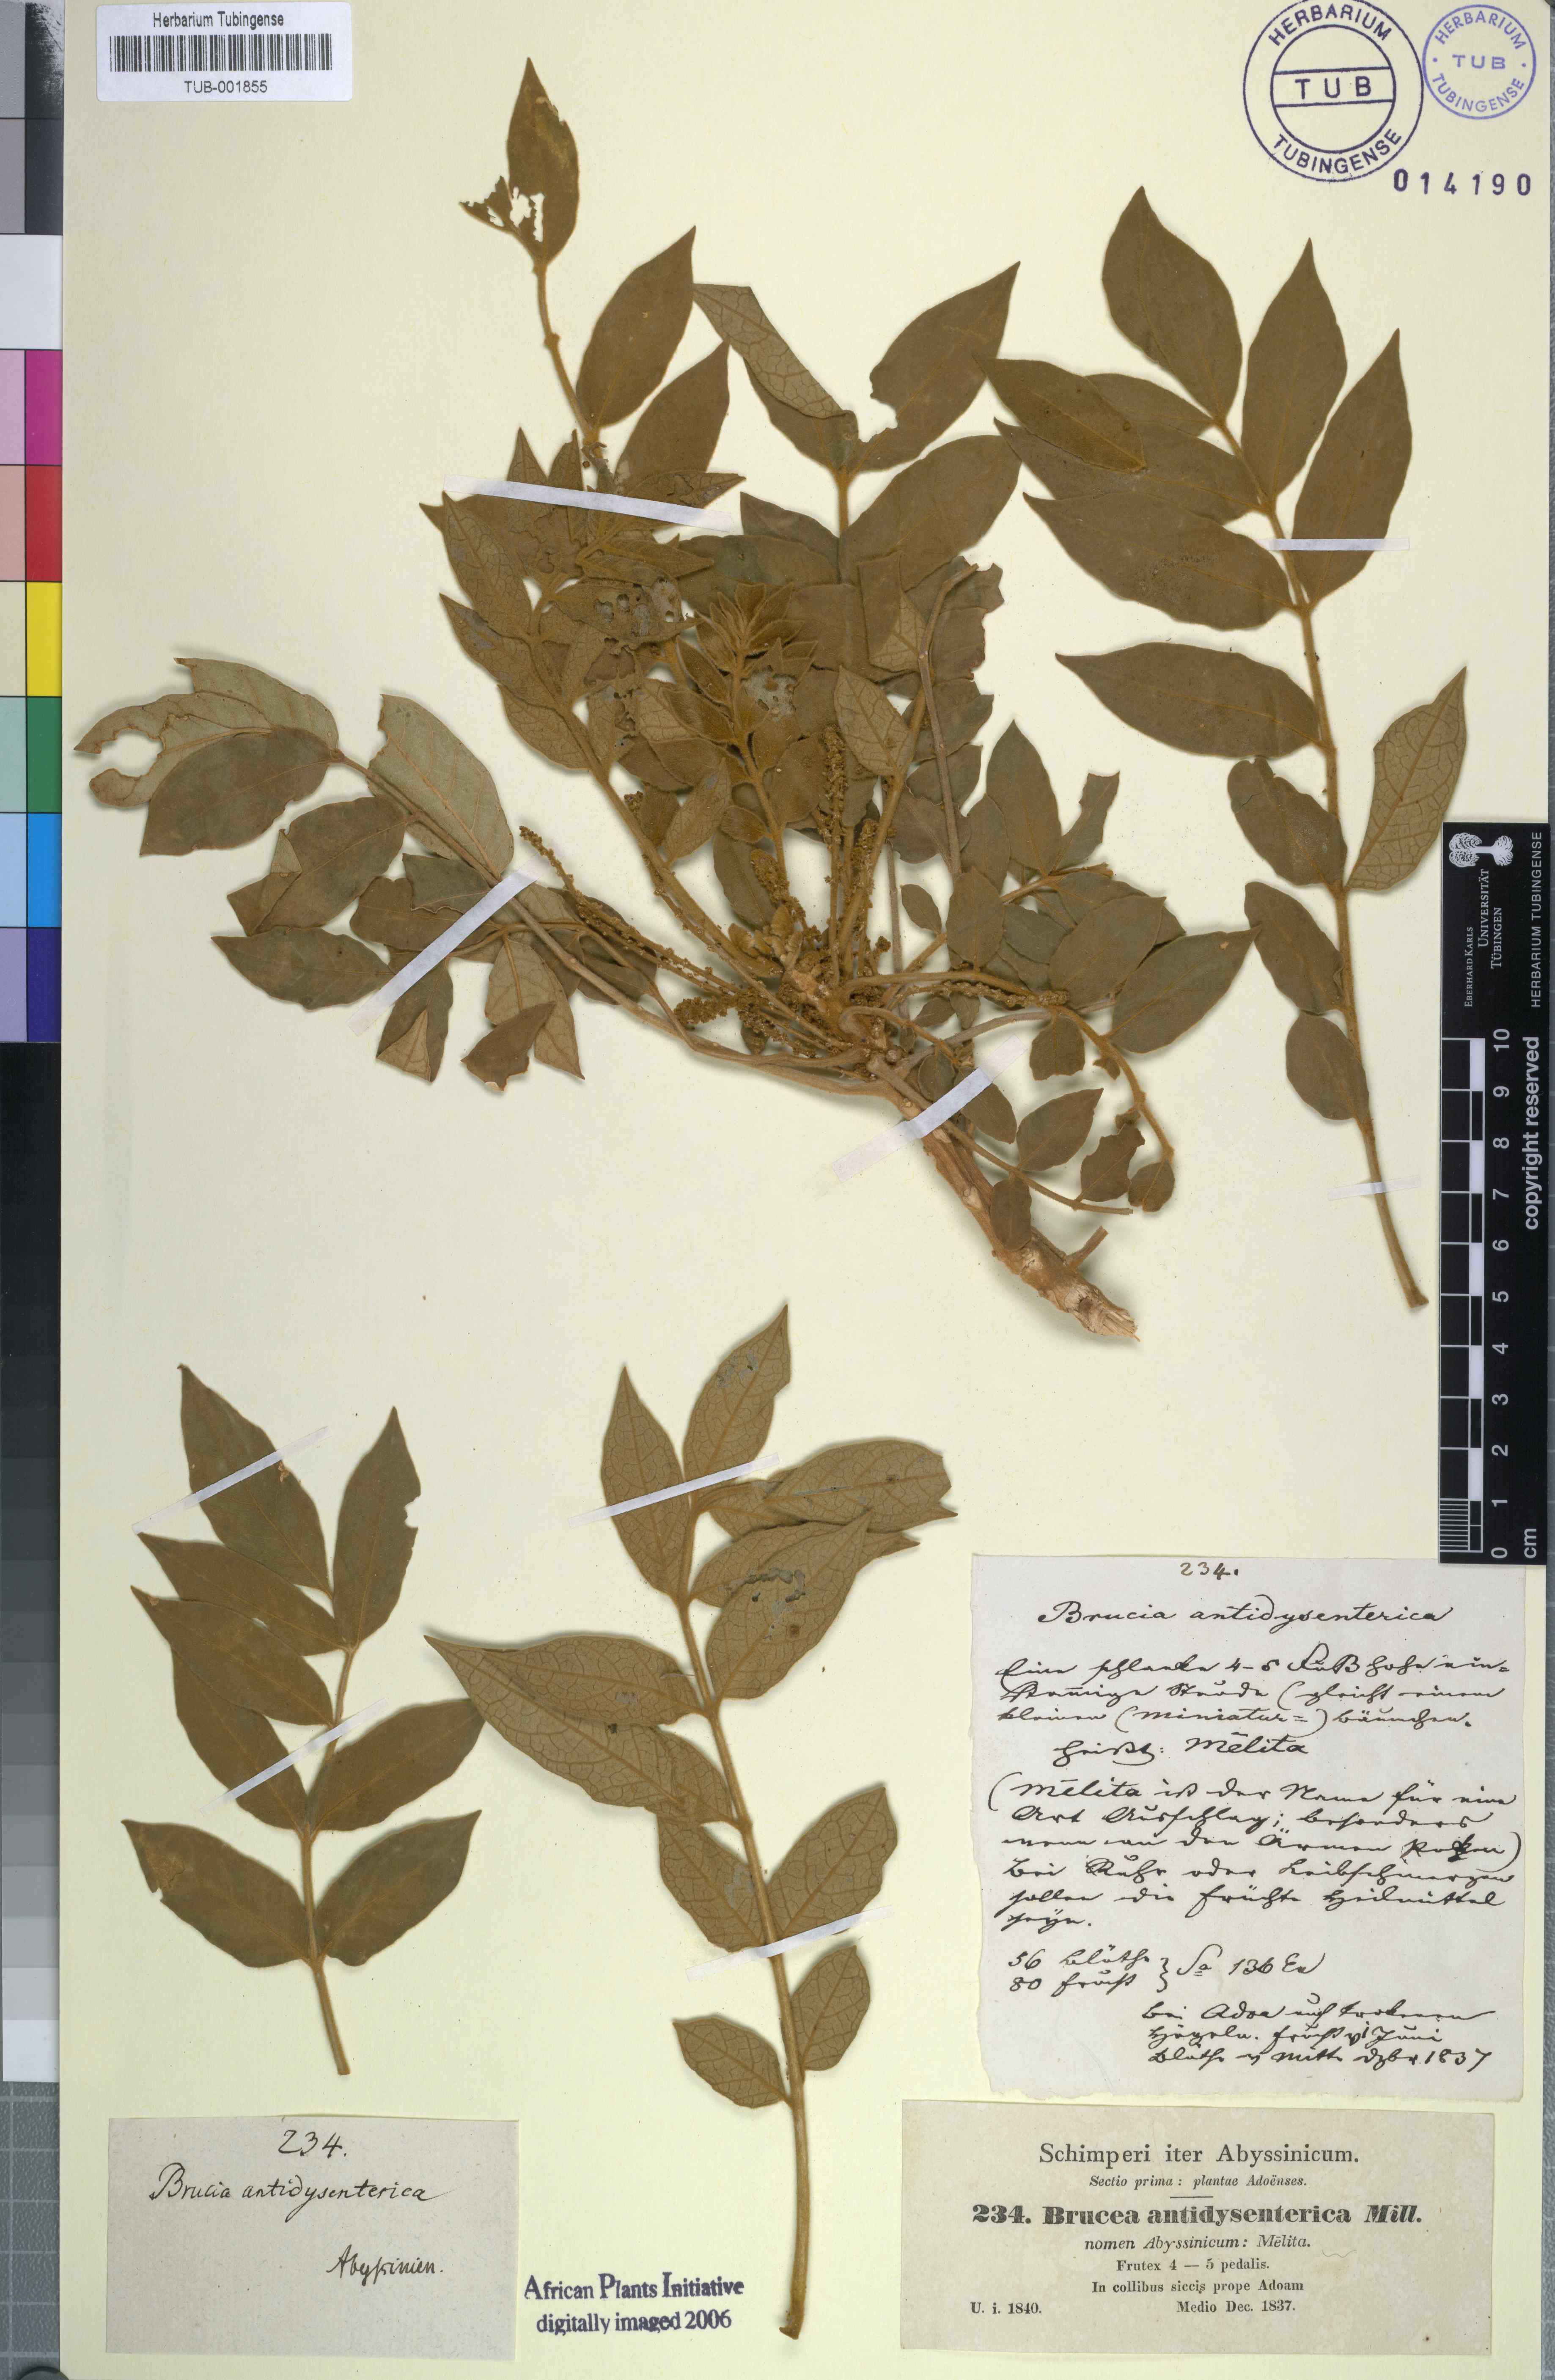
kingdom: Plantae
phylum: Tracheophyta
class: Magnoliopsida
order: Sapindales
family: Simaroubaceae
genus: Brucea
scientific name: Brucea antidysenterica
